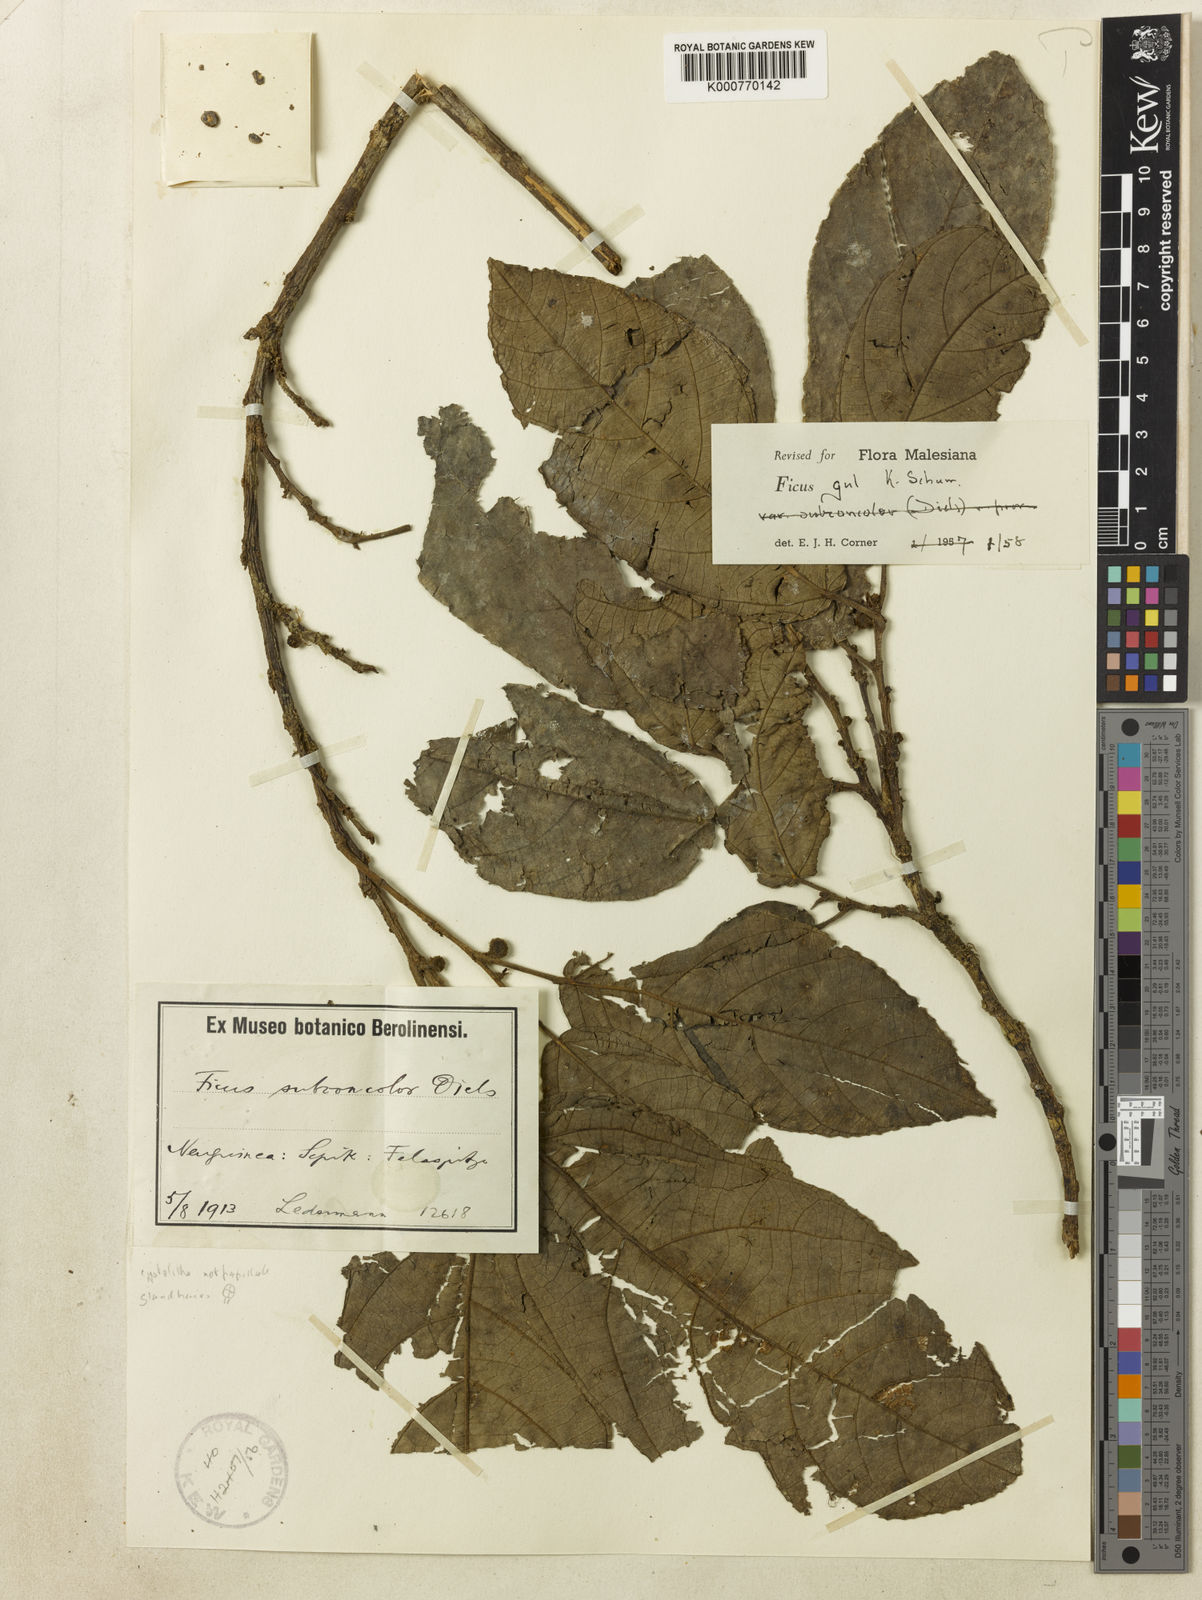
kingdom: Plantae
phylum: Tracheophyta
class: Magnoliopsida
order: Rosales
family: Moraceae
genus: Ficus
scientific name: Ficus gul
